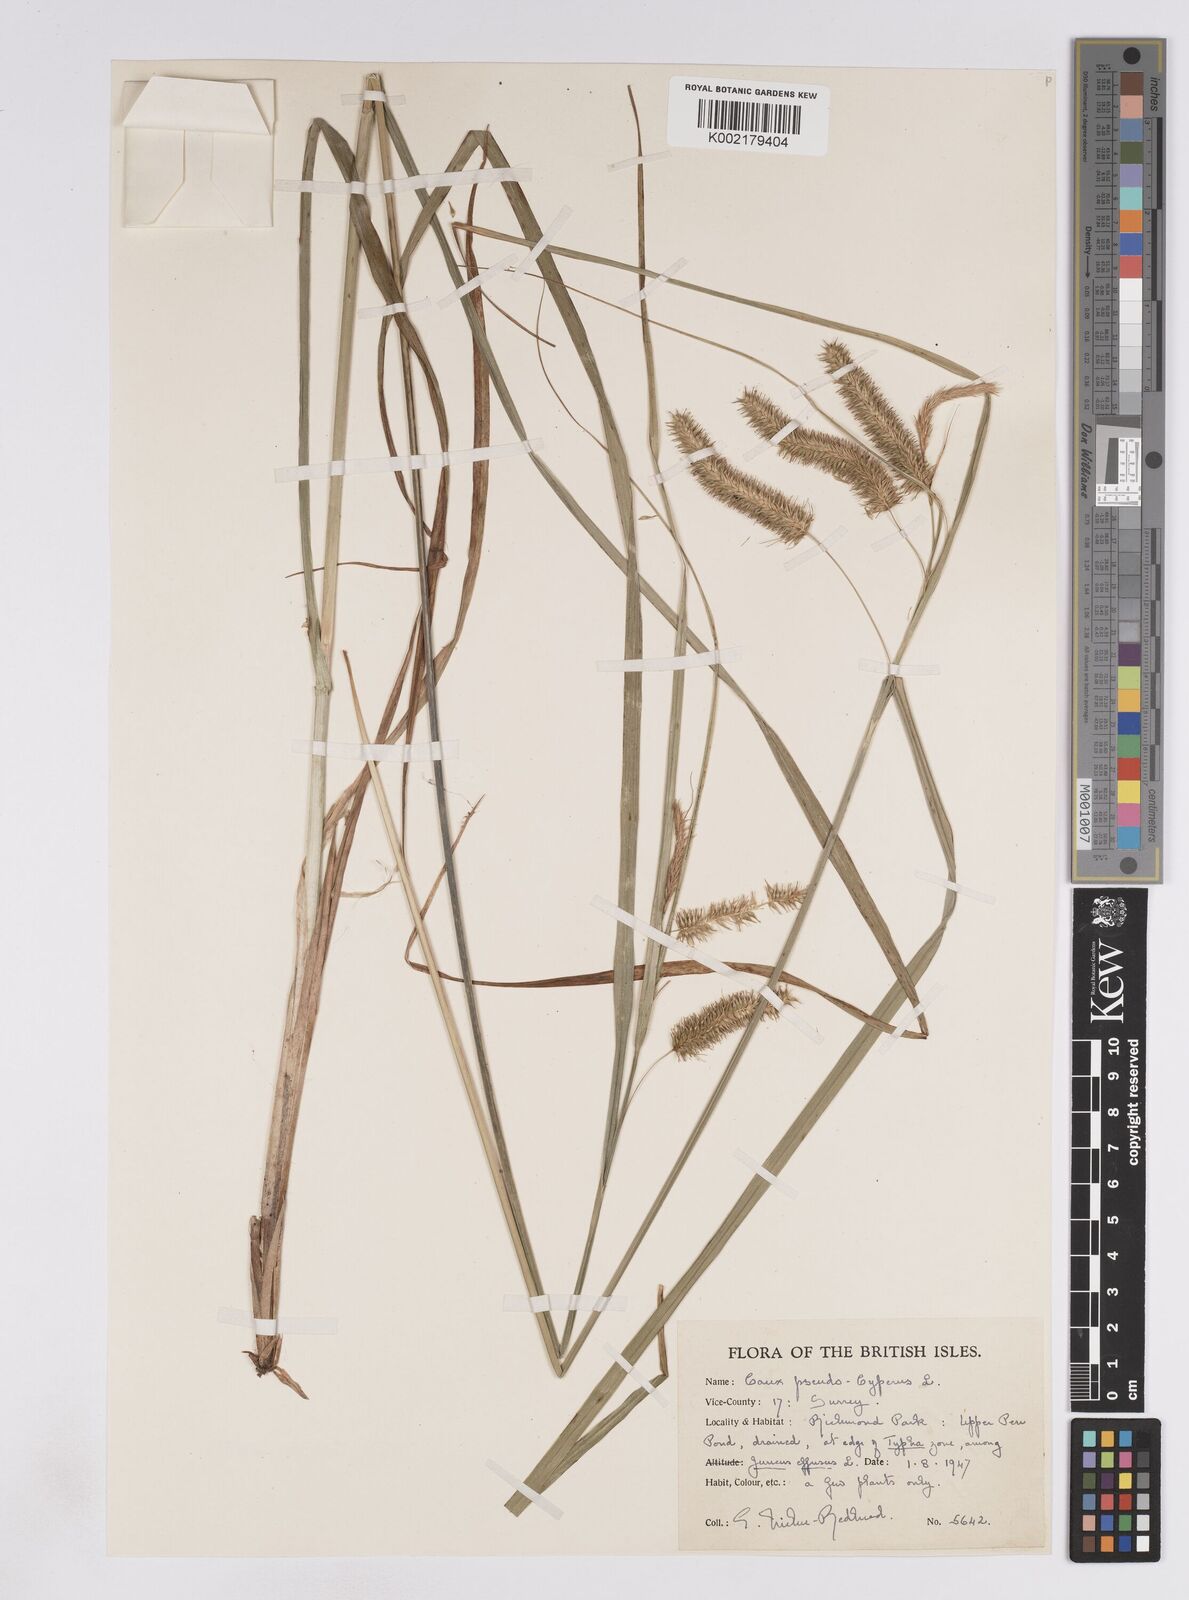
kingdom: Plantae
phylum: Tracheophyta
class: Liliopsida
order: Poales
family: Cyperaceae
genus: Carex
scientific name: Carex pseudocyperus
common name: Cyperus sedge
